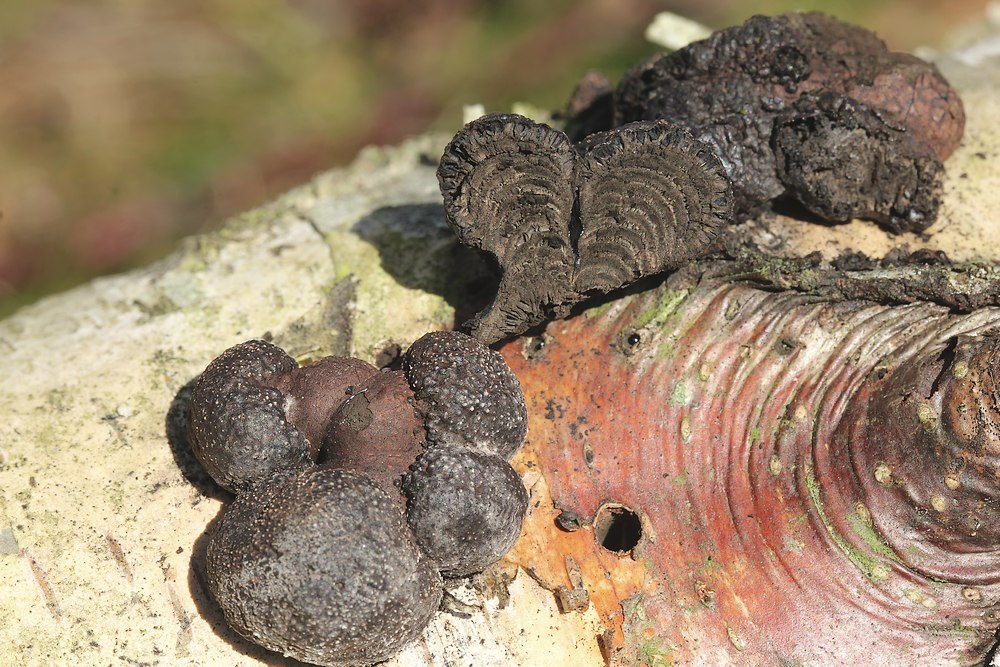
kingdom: Fungi
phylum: Ascomycota
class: Sordariomycetes
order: Xylariales
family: Hypoxylaceae
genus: Daldinia
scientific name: Daldinia decipiens
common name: stilket bæltekugle
